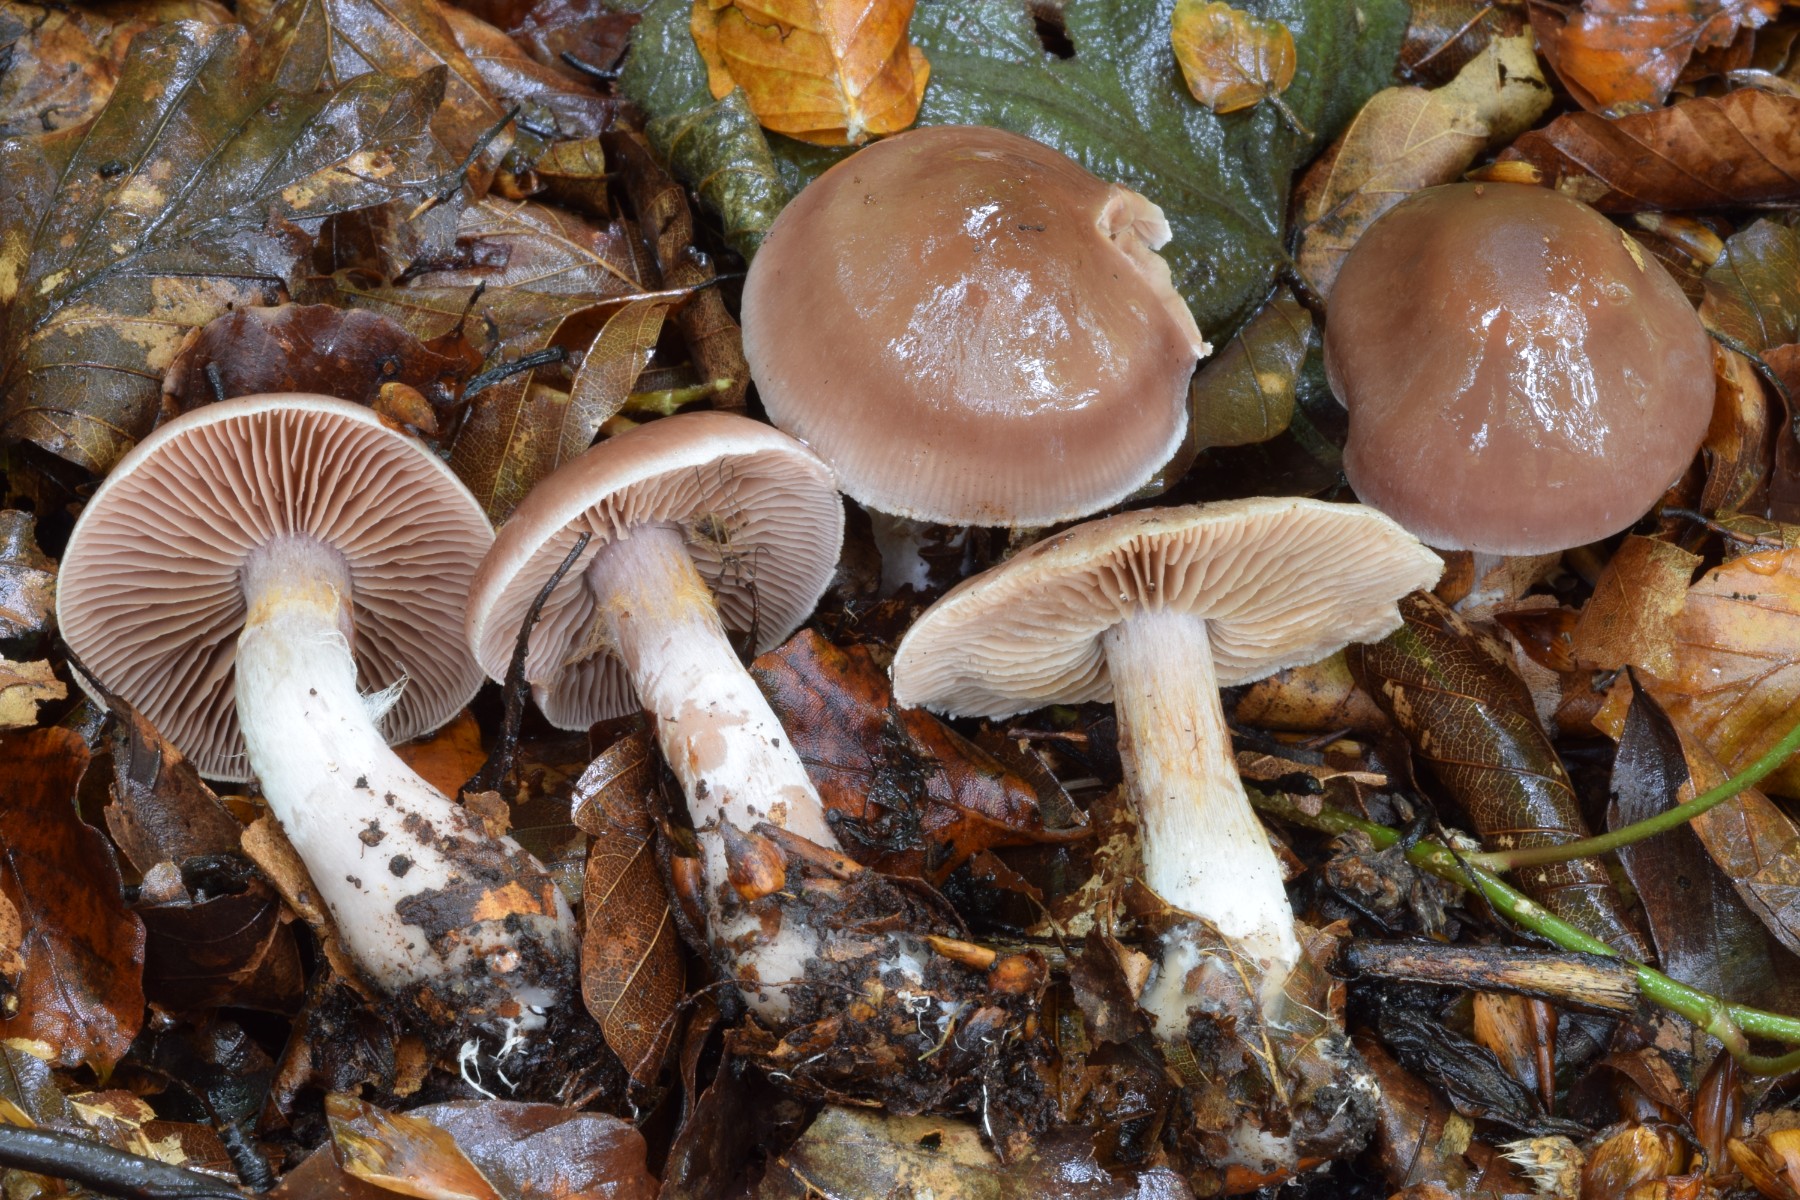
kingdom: Fungi
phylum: Basidiomycota
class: Agaricomycetes
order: Agaricales
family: Cortinariaceae
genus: Cortinarius
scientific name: Cortinarius
